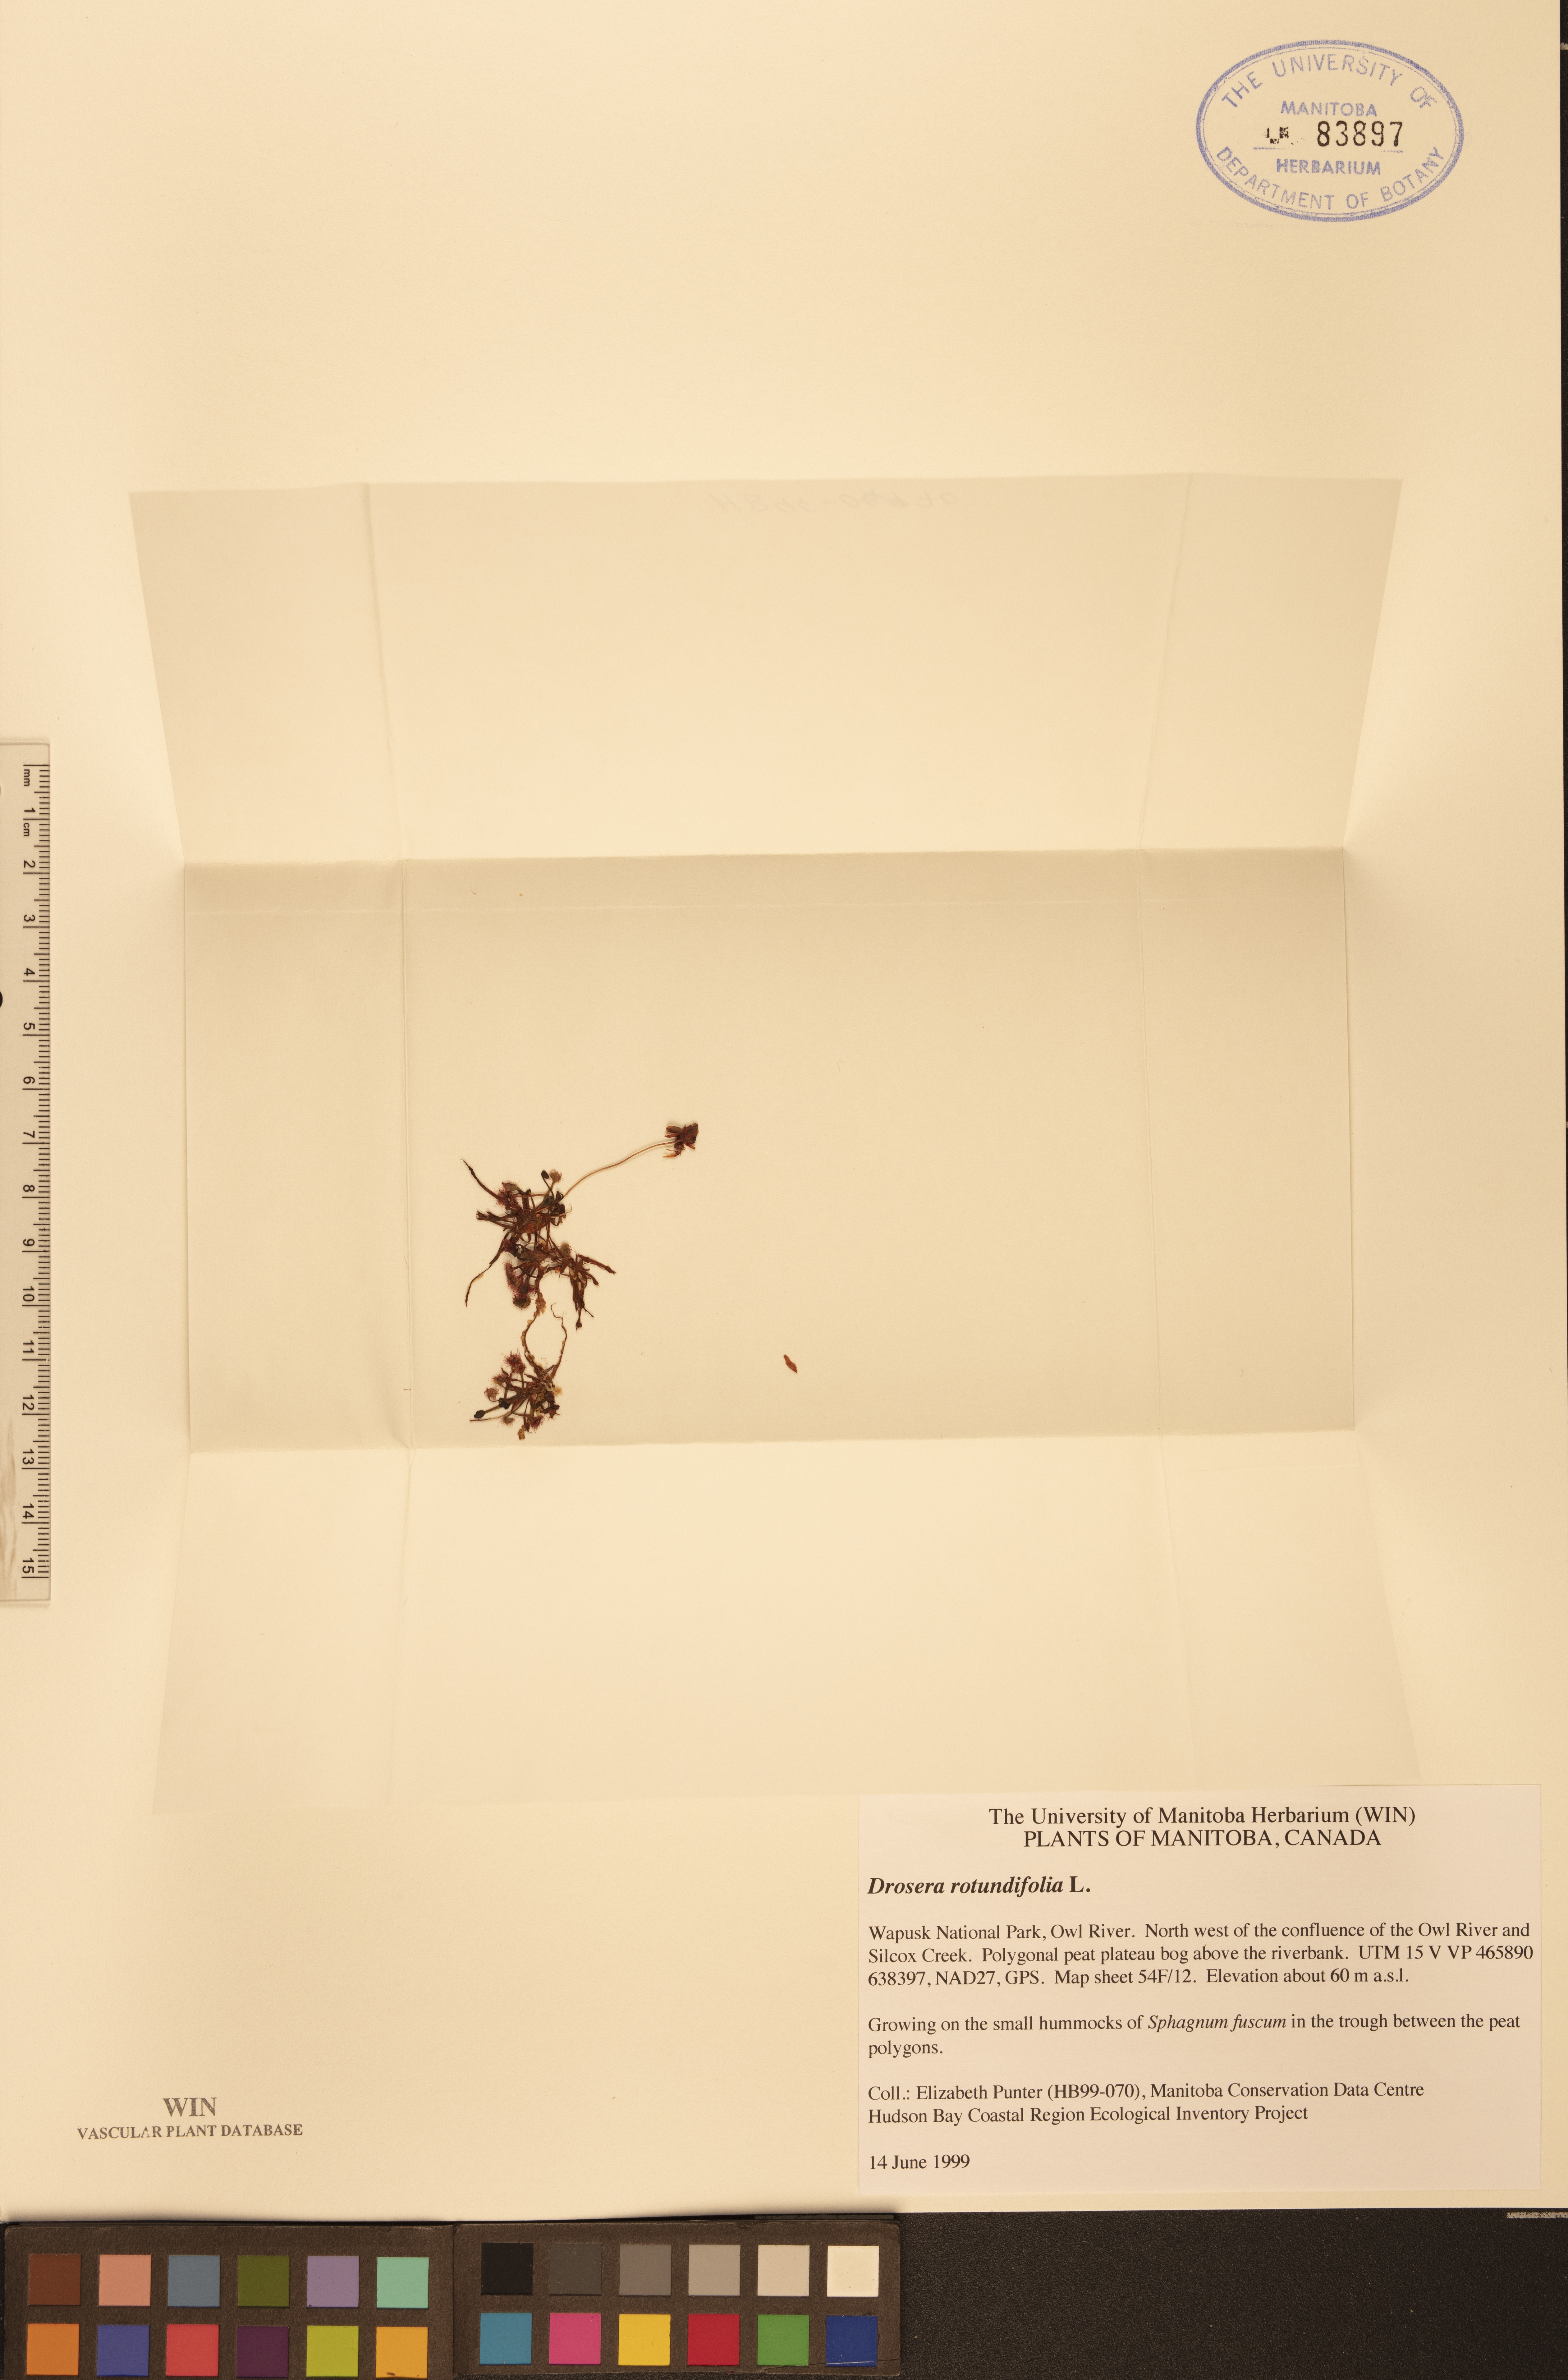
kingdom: Plantae
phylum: Tracheophyta
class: Magnoliopsida
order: Caryophyllales
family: Droseraceae
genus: Drosera
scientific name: Drosera rotundifolia
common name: Round-leaved sundew
